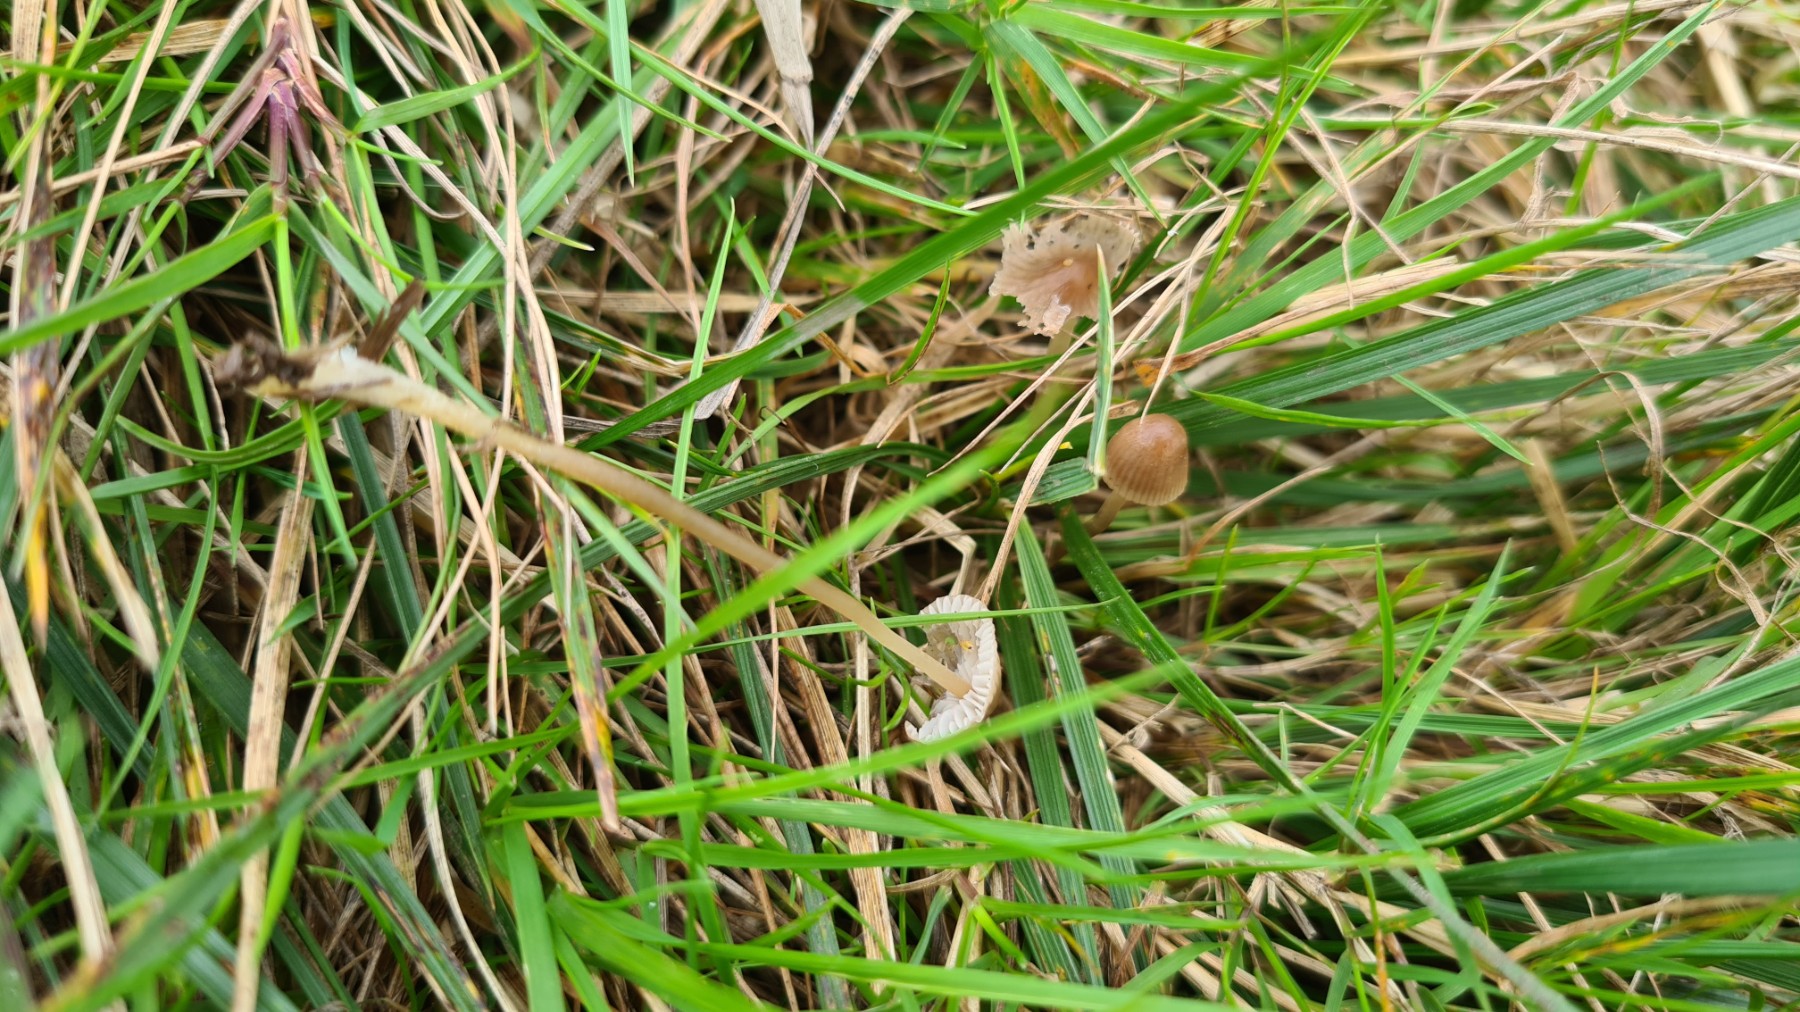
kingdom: Fungi
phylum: Basidiomycota
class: Agaricomycetes
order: Agaricales
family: Mycenaceae
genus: Mycena
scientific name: Mycena olivaceomarginata
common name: brunægget huesvamp
